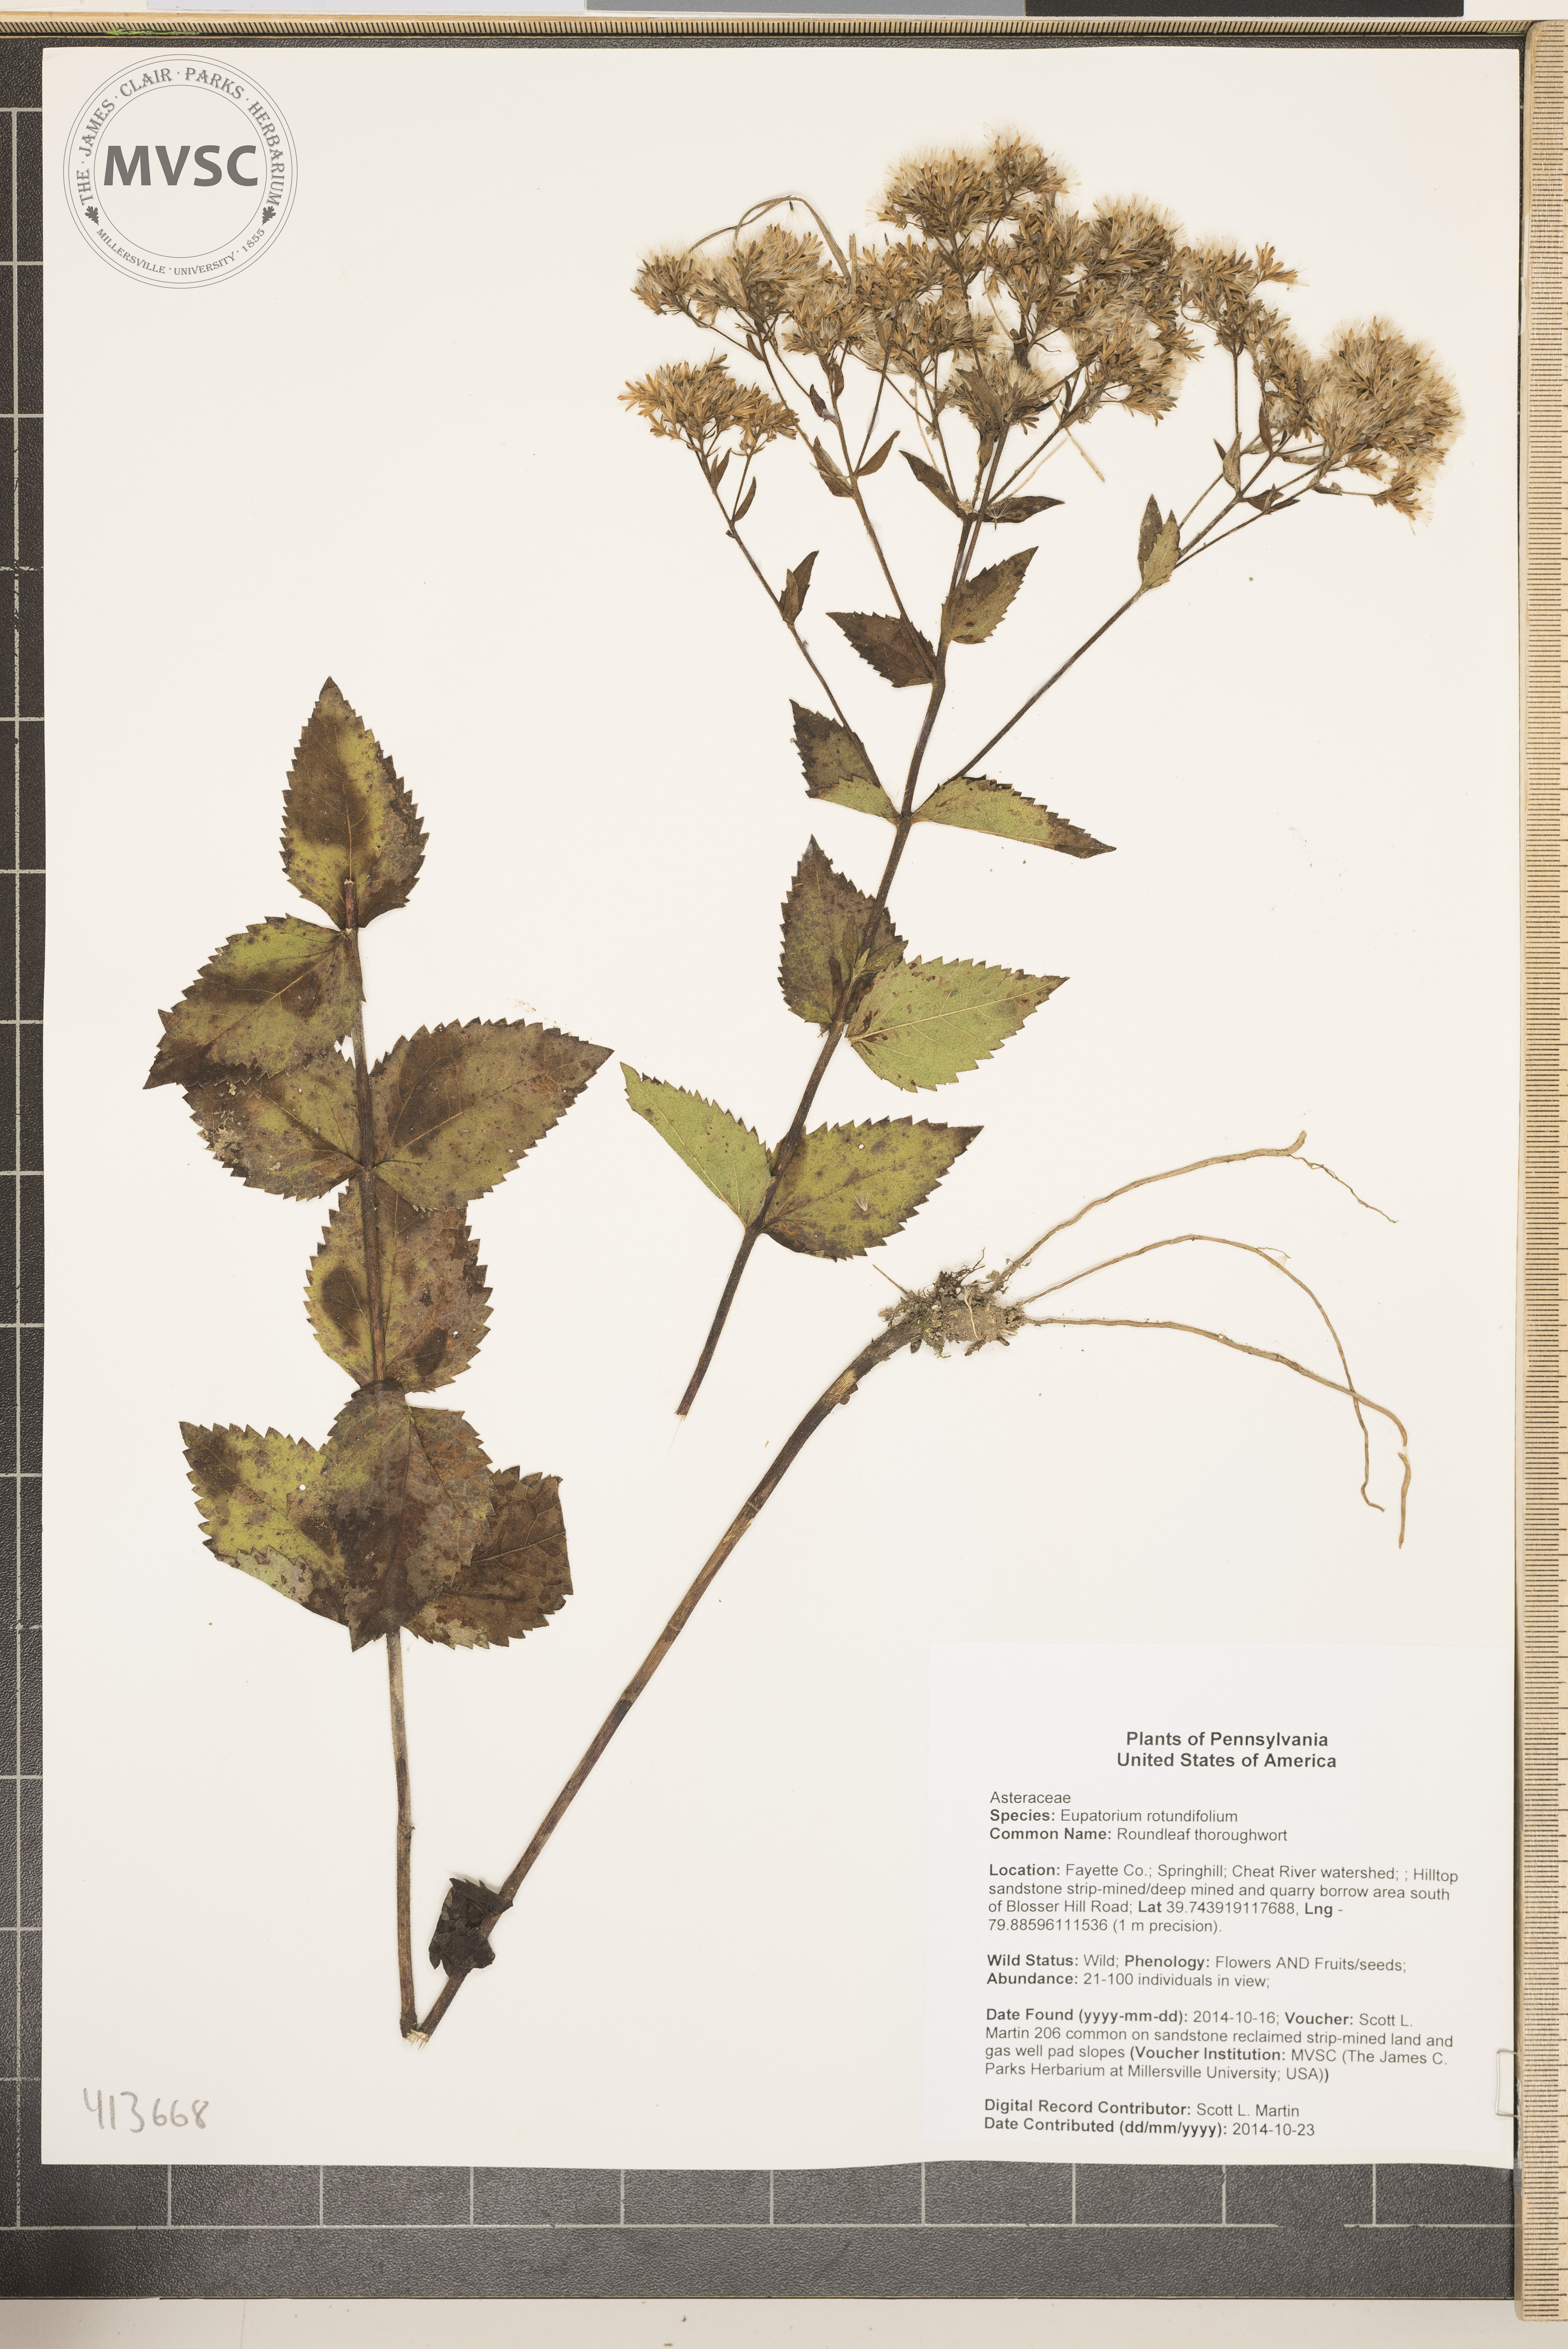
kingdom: Plantae
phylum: Tracheophyta
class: Magnoliopsida
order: Asterales
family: Asteraceae
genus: Eupatorium
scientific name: Eupatorium rotundifolium
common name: roundleaf thoroughwort
